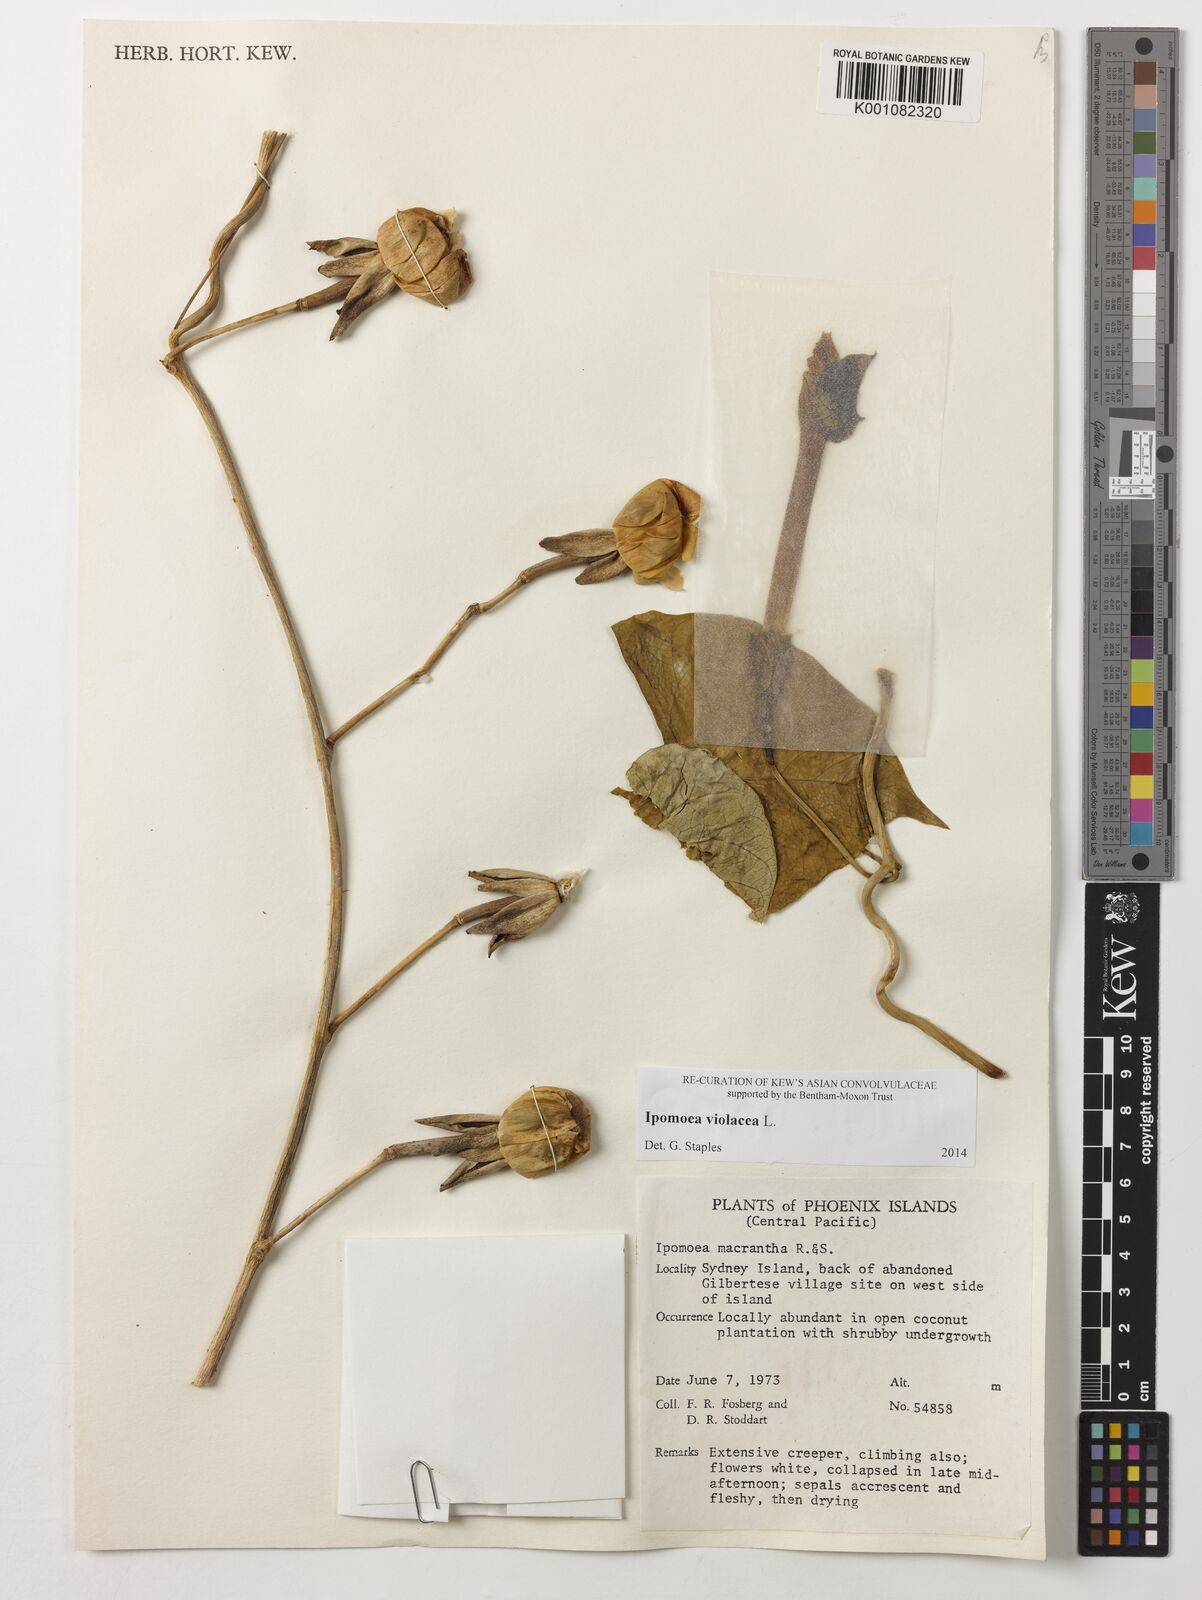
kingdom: Plantae
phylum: Tracheophyta
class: Magnoliopsida
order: Solanales
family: Convolvulaceae
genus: Ipomoea
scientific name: Ipomoea violacea
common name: Beach moonflower
